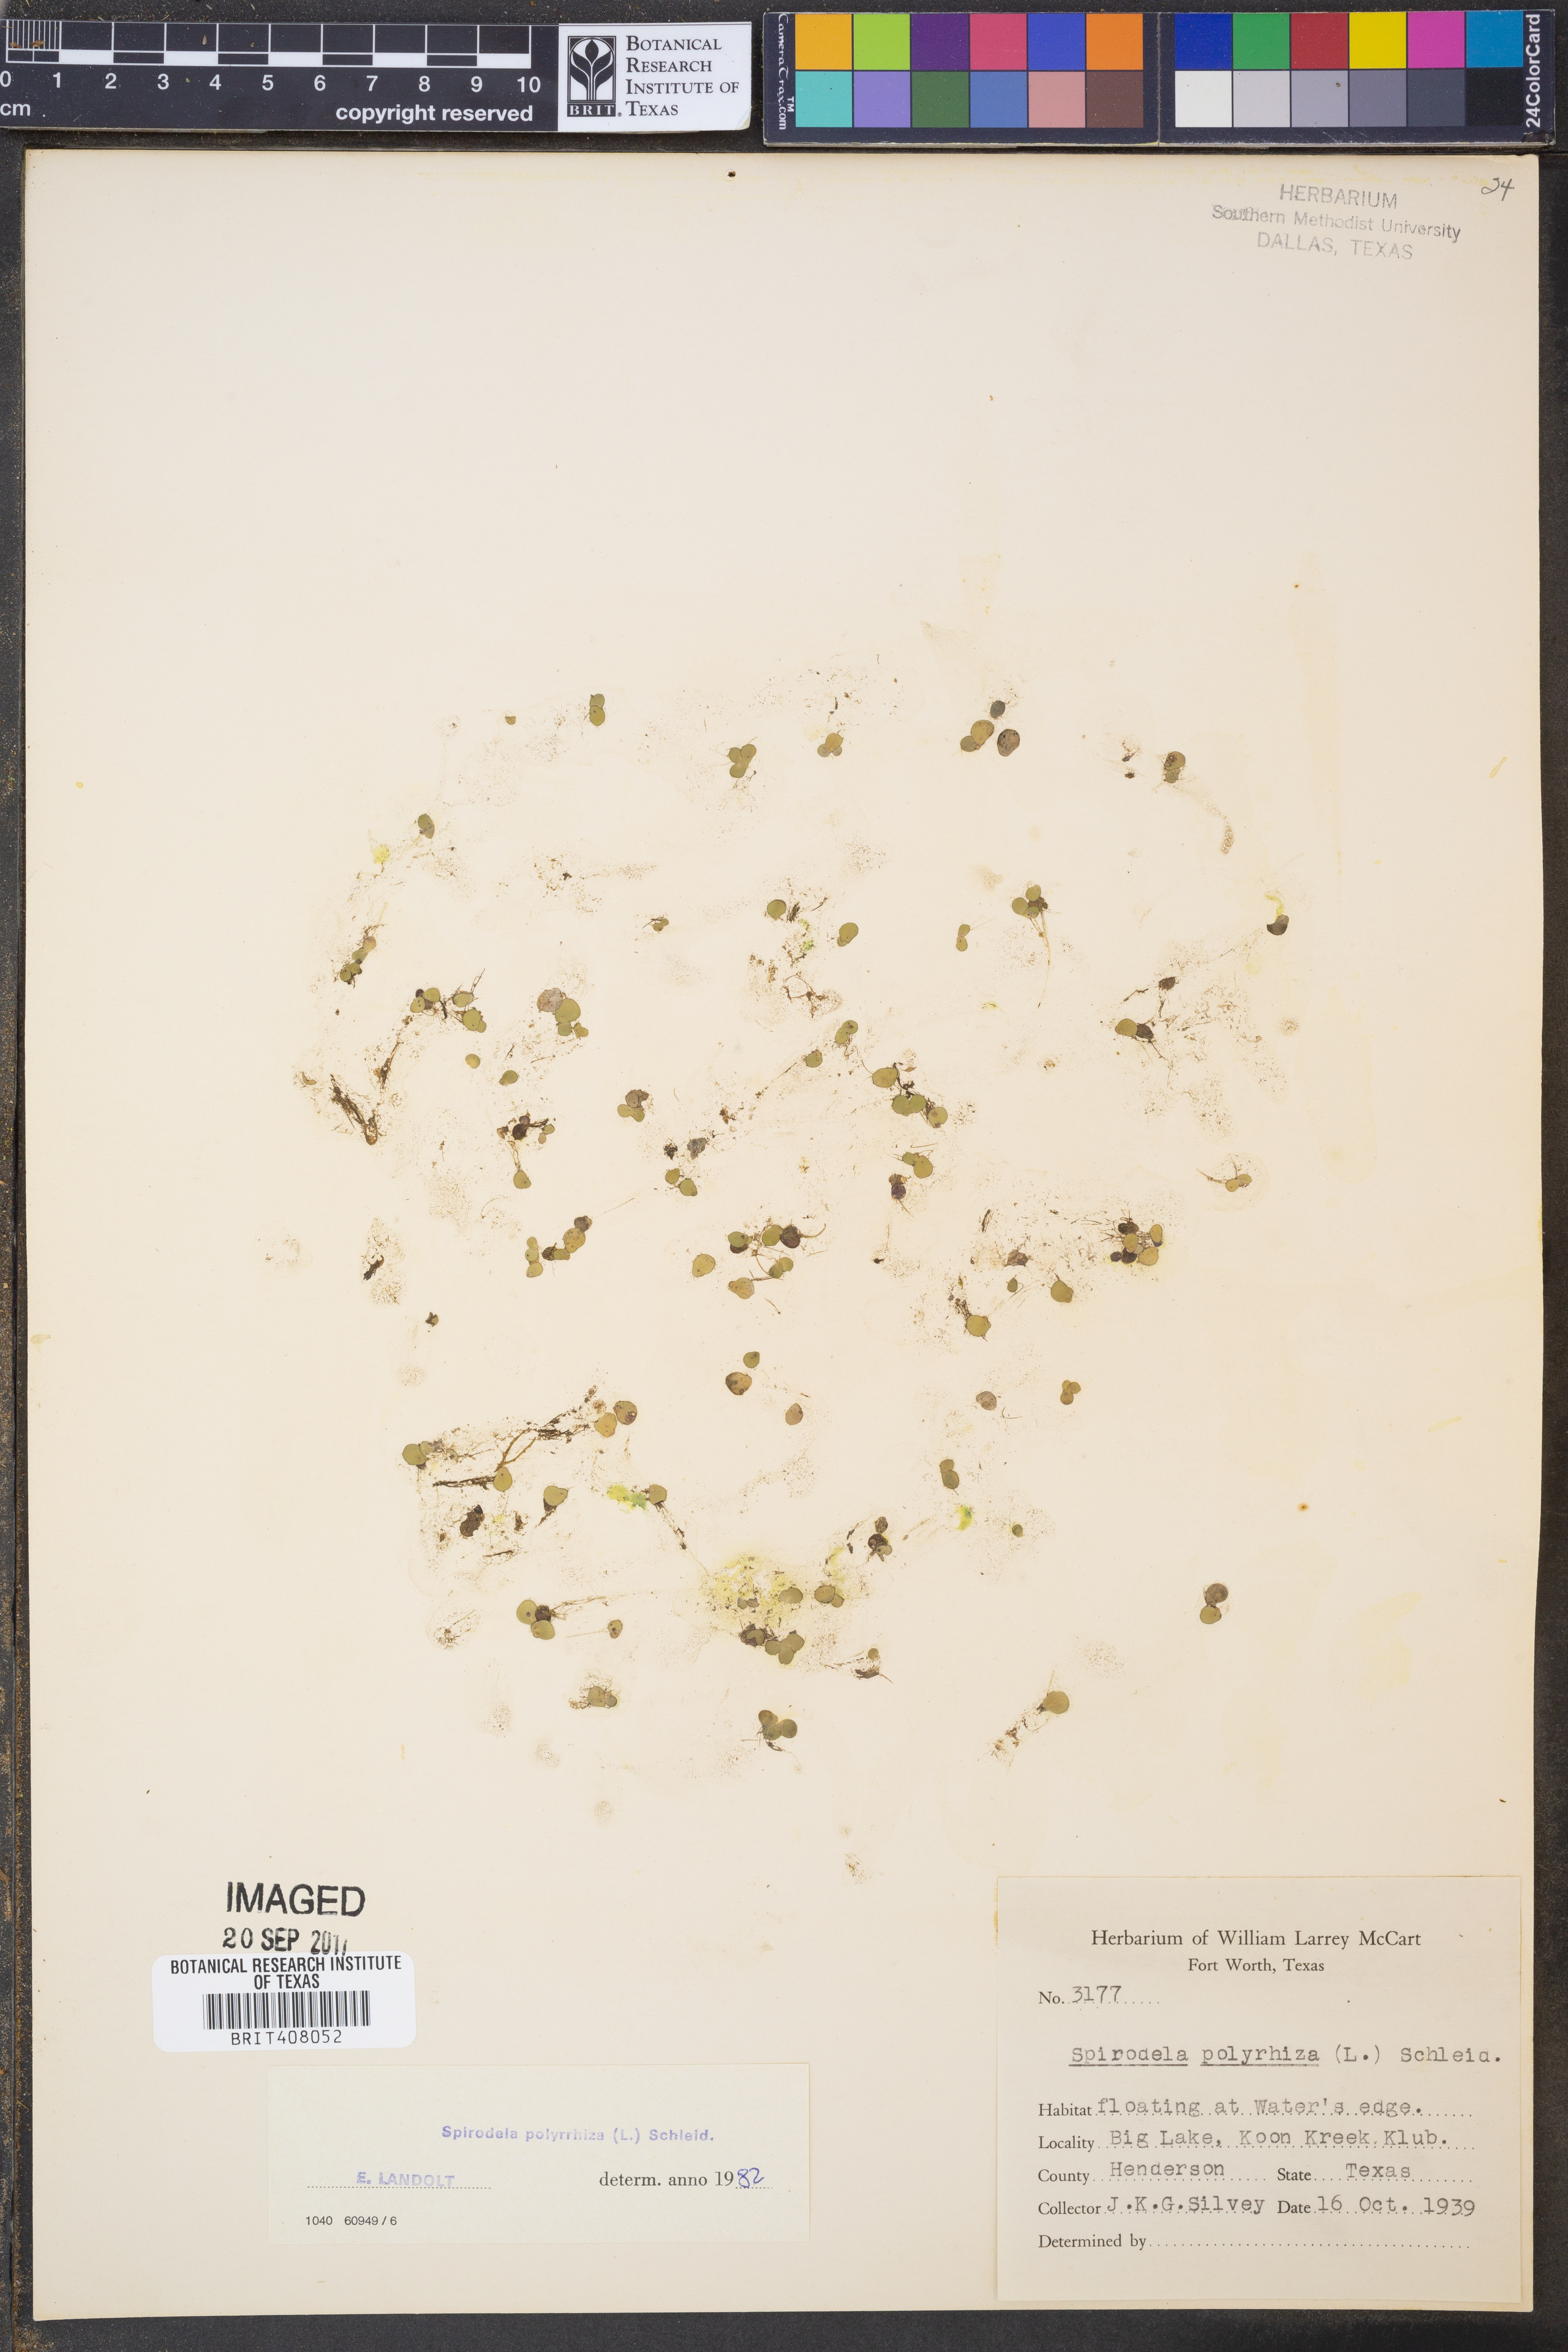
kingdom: Plantae
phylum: Tracheophyta
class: Liliopsida
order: Alismatales
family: Araceae
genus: Spirodela
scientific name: Spirodela polyrhiza
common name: Great duckweed
